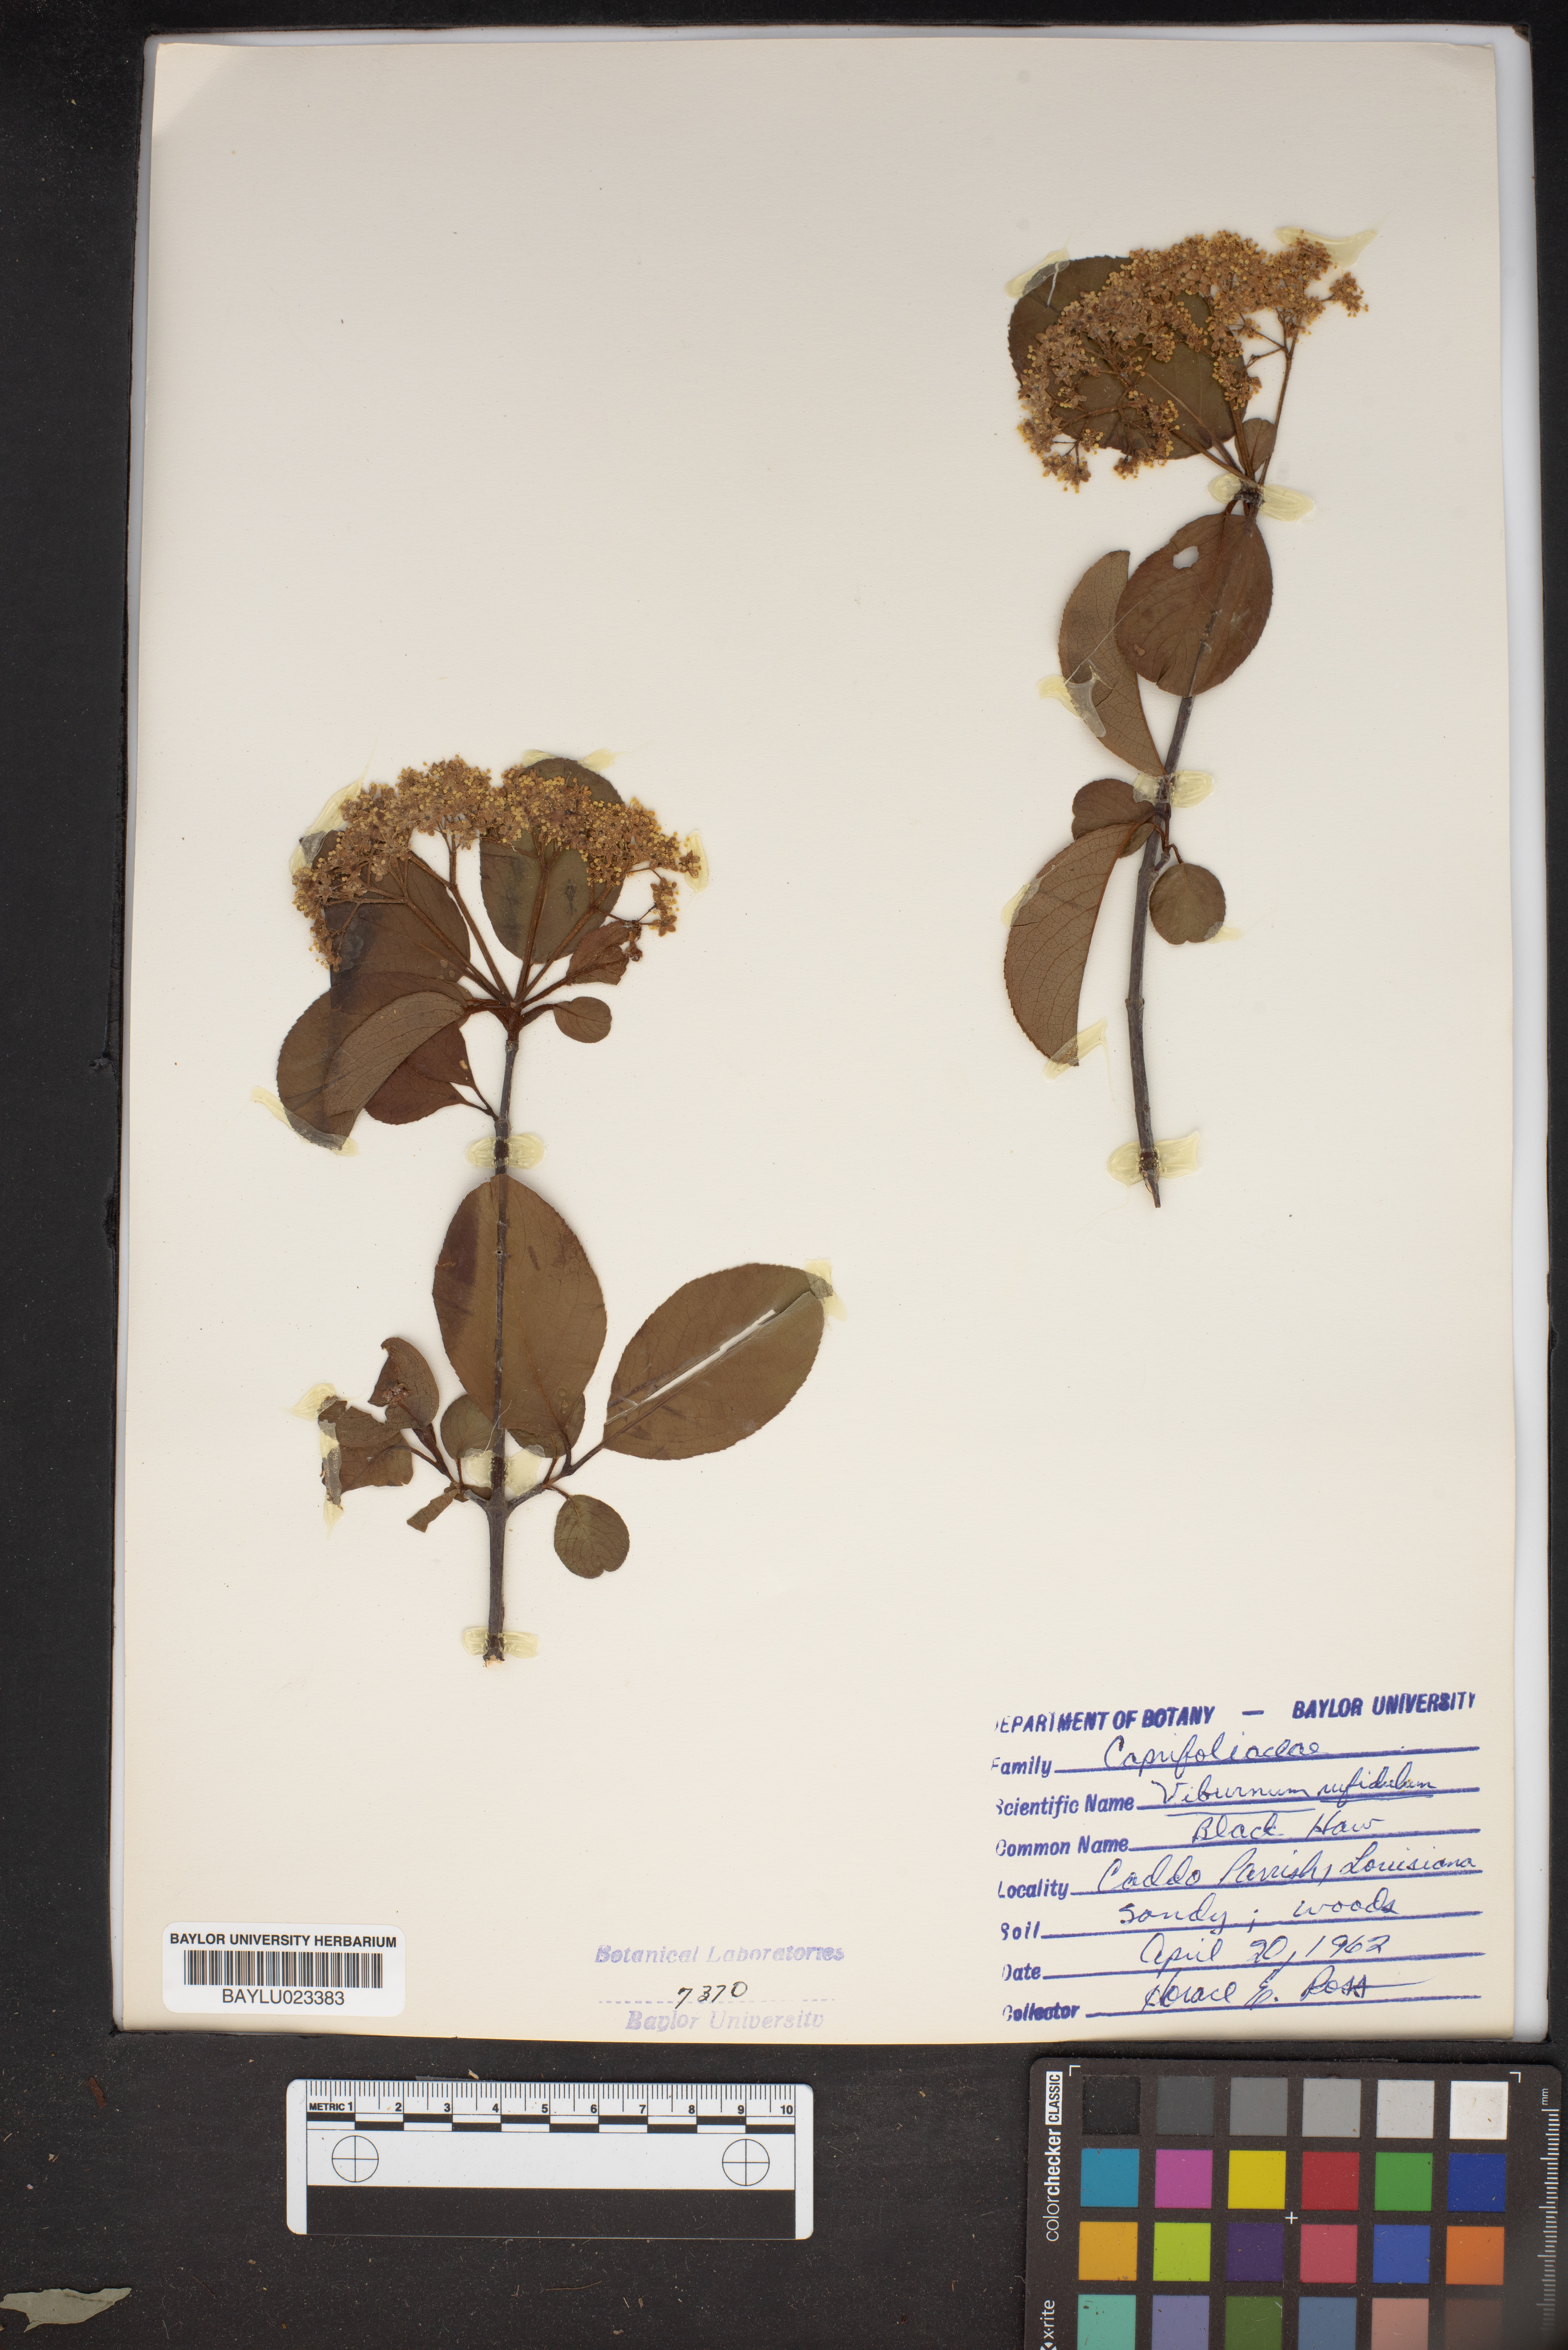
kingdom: Plantae
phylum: Tracheophyta
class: Magnoliopsida
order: Dipsacales
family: Viburnaceae
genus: Viburnum
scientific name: Viburnum rufidulum
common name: Blue haw
